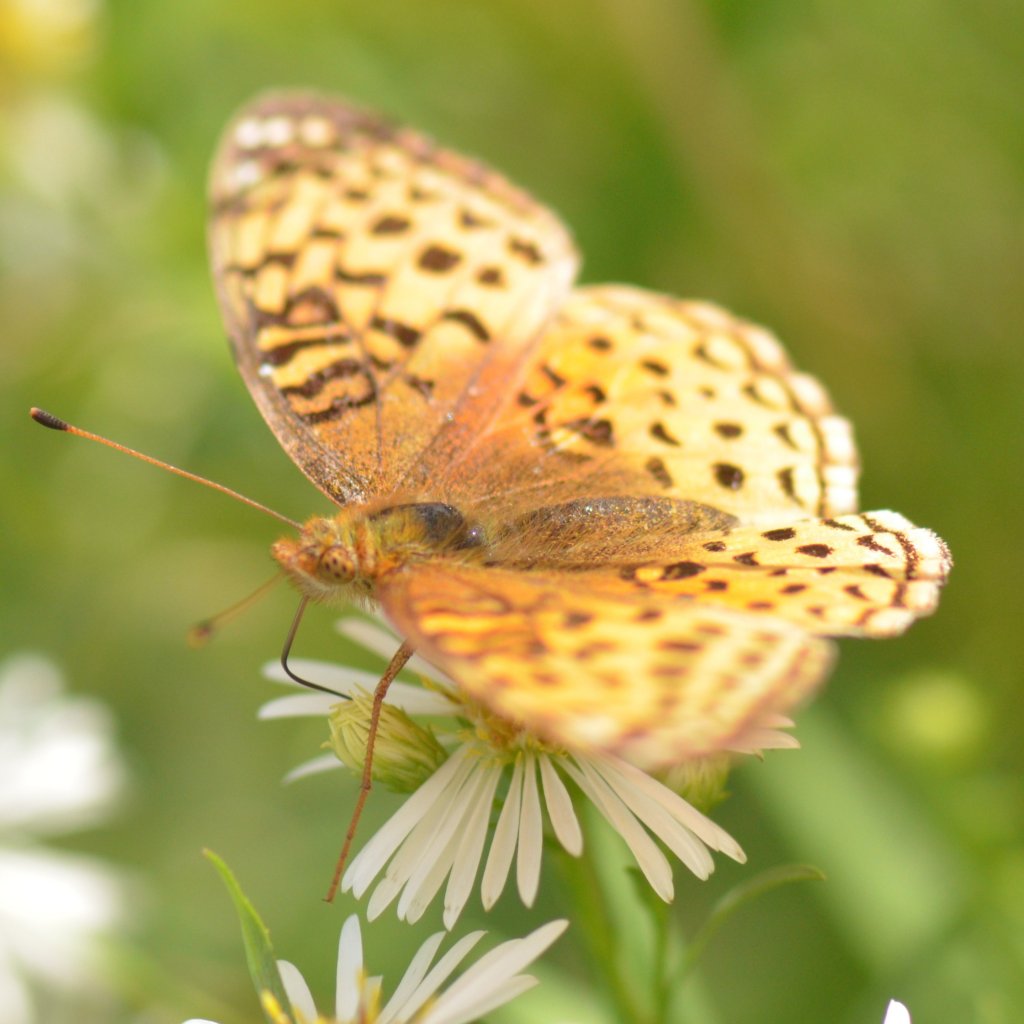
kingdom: Animalia
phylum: Arthropoda
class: Insecta
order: Lepidoptera
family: Nymphalidae
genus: Speyeria
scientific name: Speyeria aphrodite
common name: Aphrodite Fritillary
